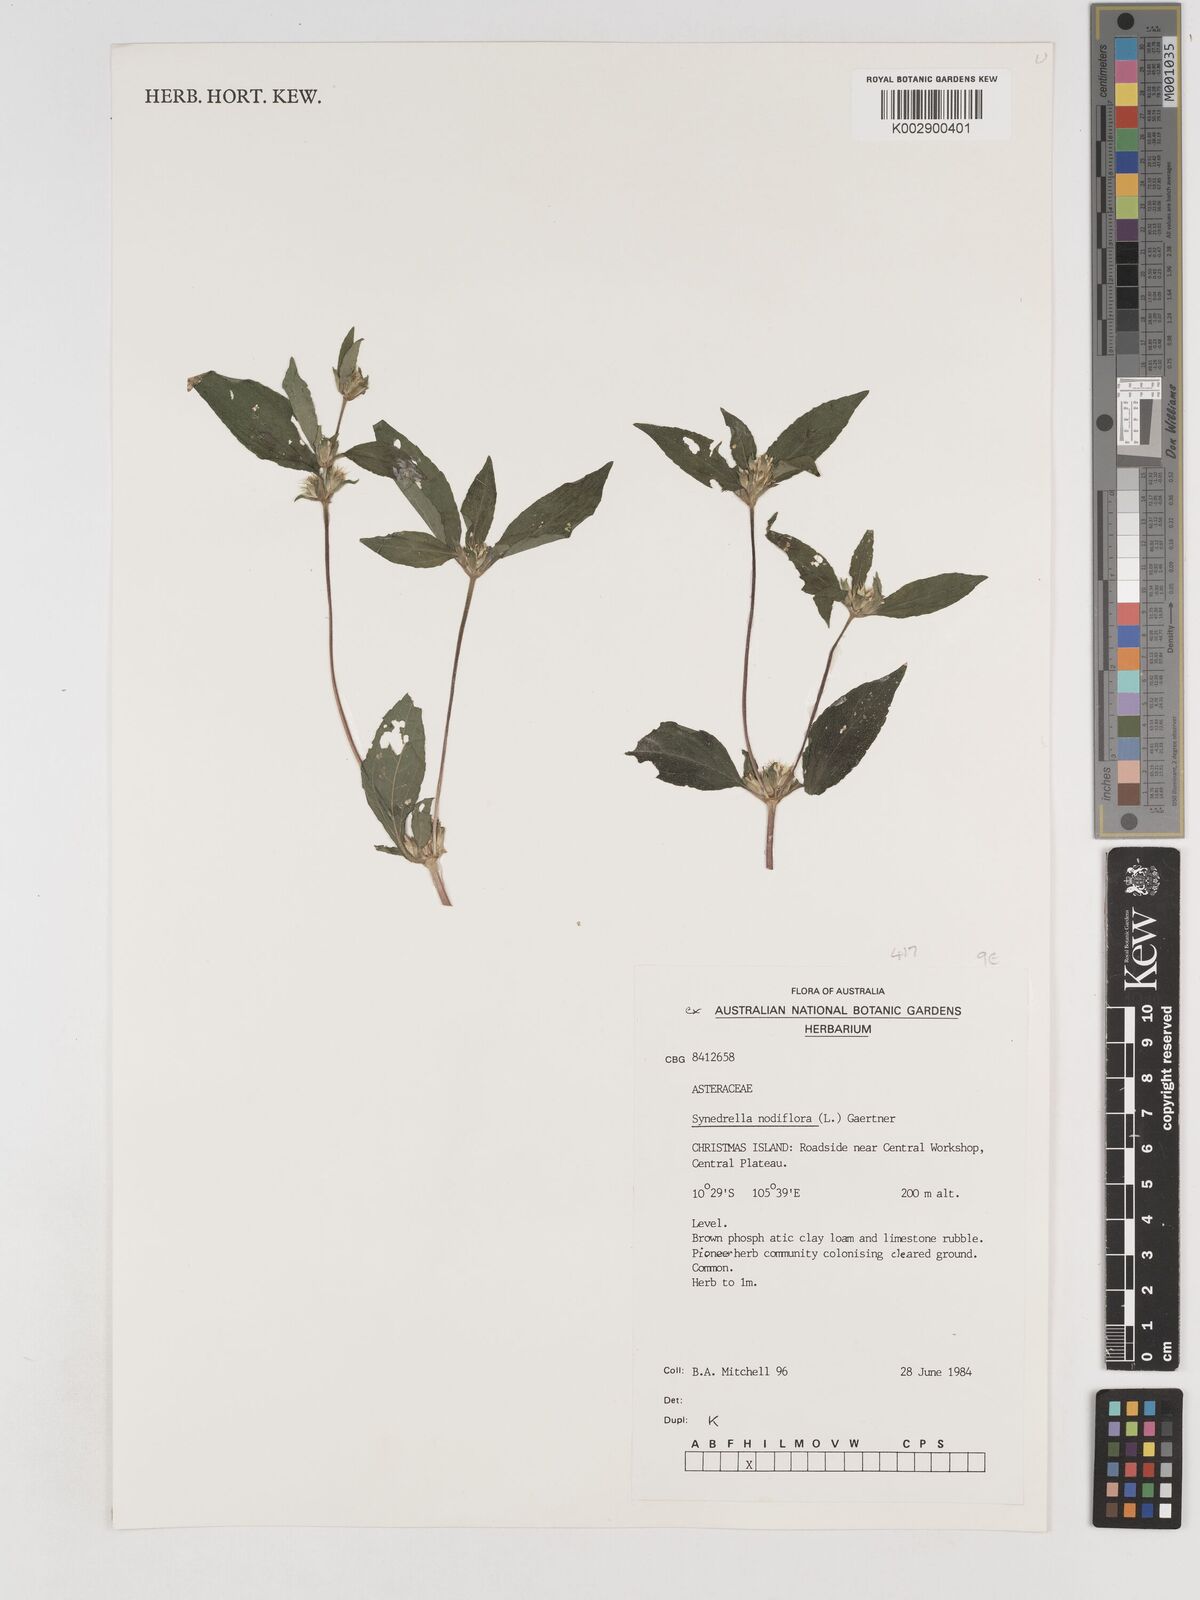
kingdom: Plantae
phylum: Tracheophyta
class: Magnoliopsida
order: Asterales
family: Asteraceae
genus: Synedrella
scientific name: Synedrella nodiflora
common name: Nodeweed
